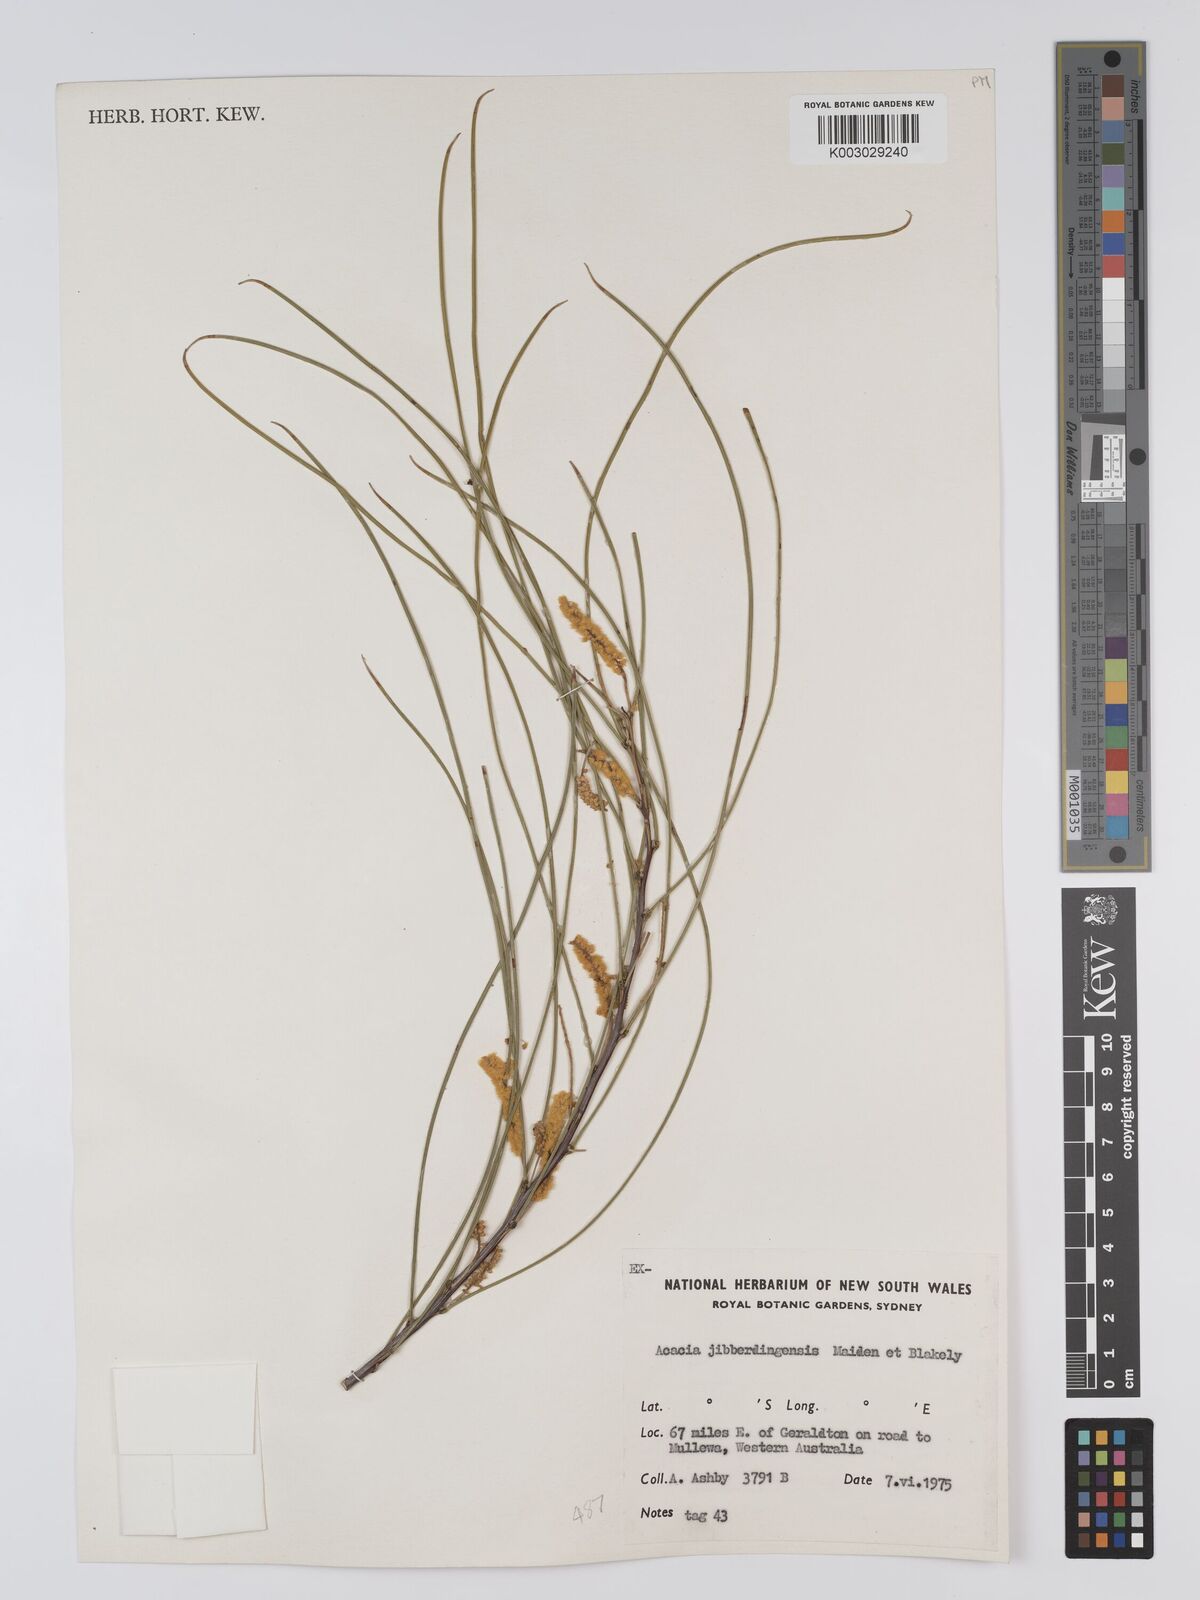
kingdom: Plantae
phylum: Tracheophyta
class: Magnoliopsida
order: Fabales
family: Fabaceae
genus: Acacia
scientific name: Acacia jibberdingensis
